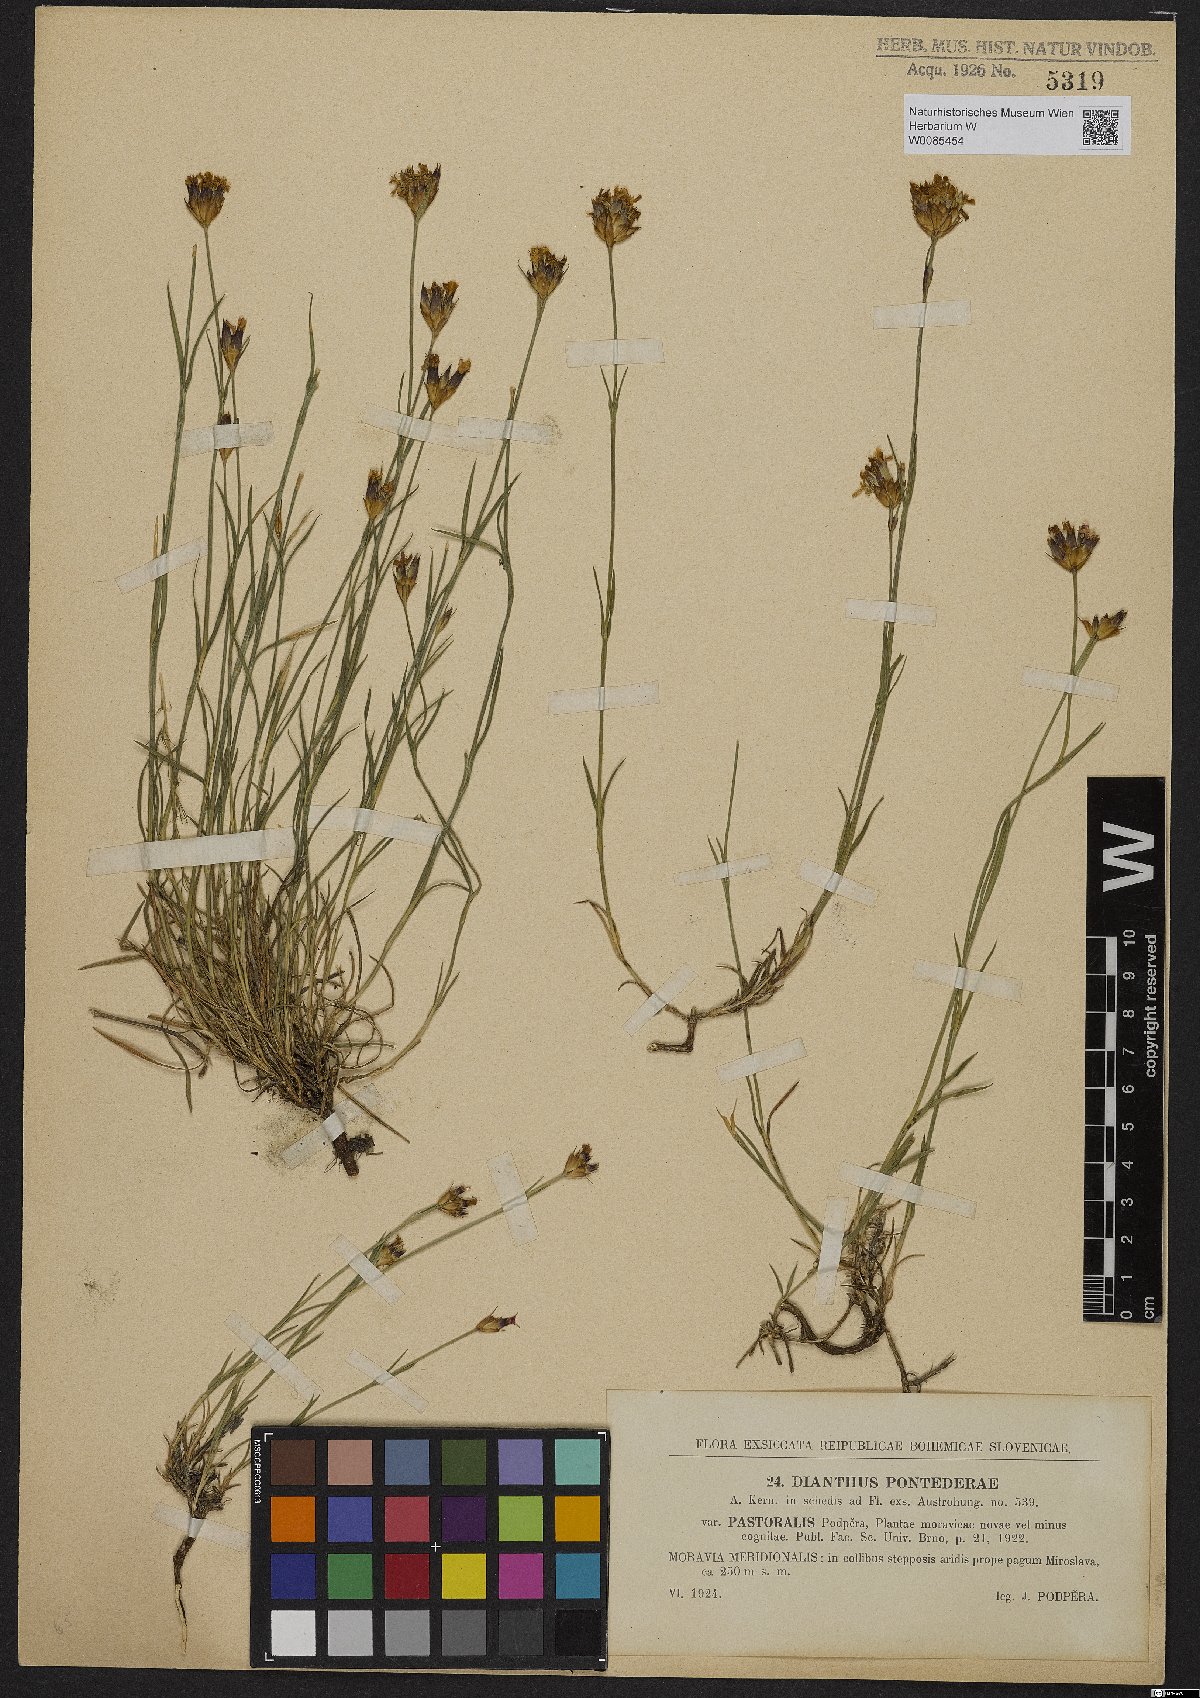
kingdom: Plantae
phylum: Tracheophyta
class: Magnoliopsida
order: Caryophyllales
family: Caryophyllaceae
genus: Dianthus
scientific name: Dianthus pontederae
